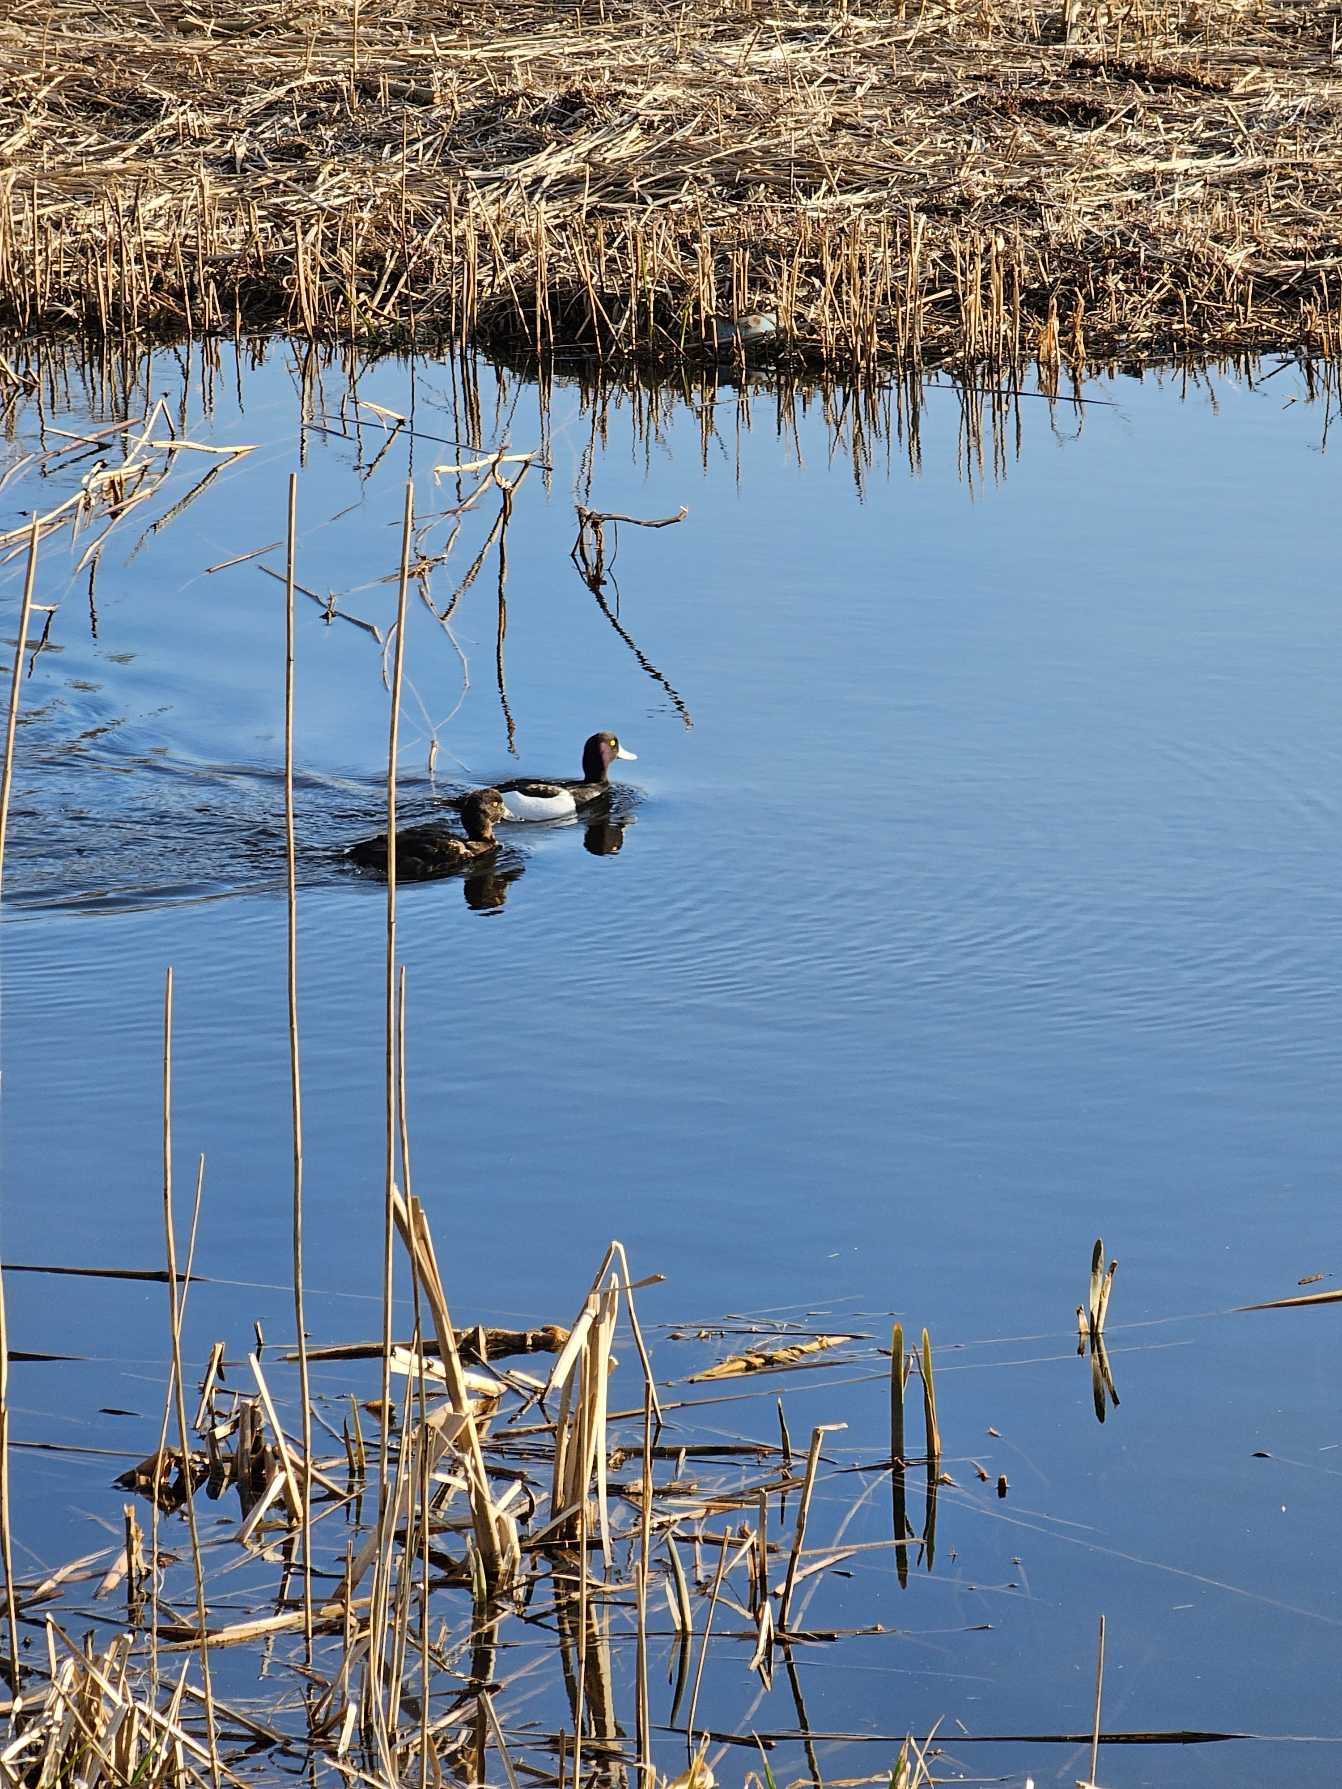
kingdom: Animalia
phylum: Chordata
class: Aves
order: Anseriformes
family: Anatidae
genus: Aythya
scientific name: Aythya fuligula
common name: Troldand
